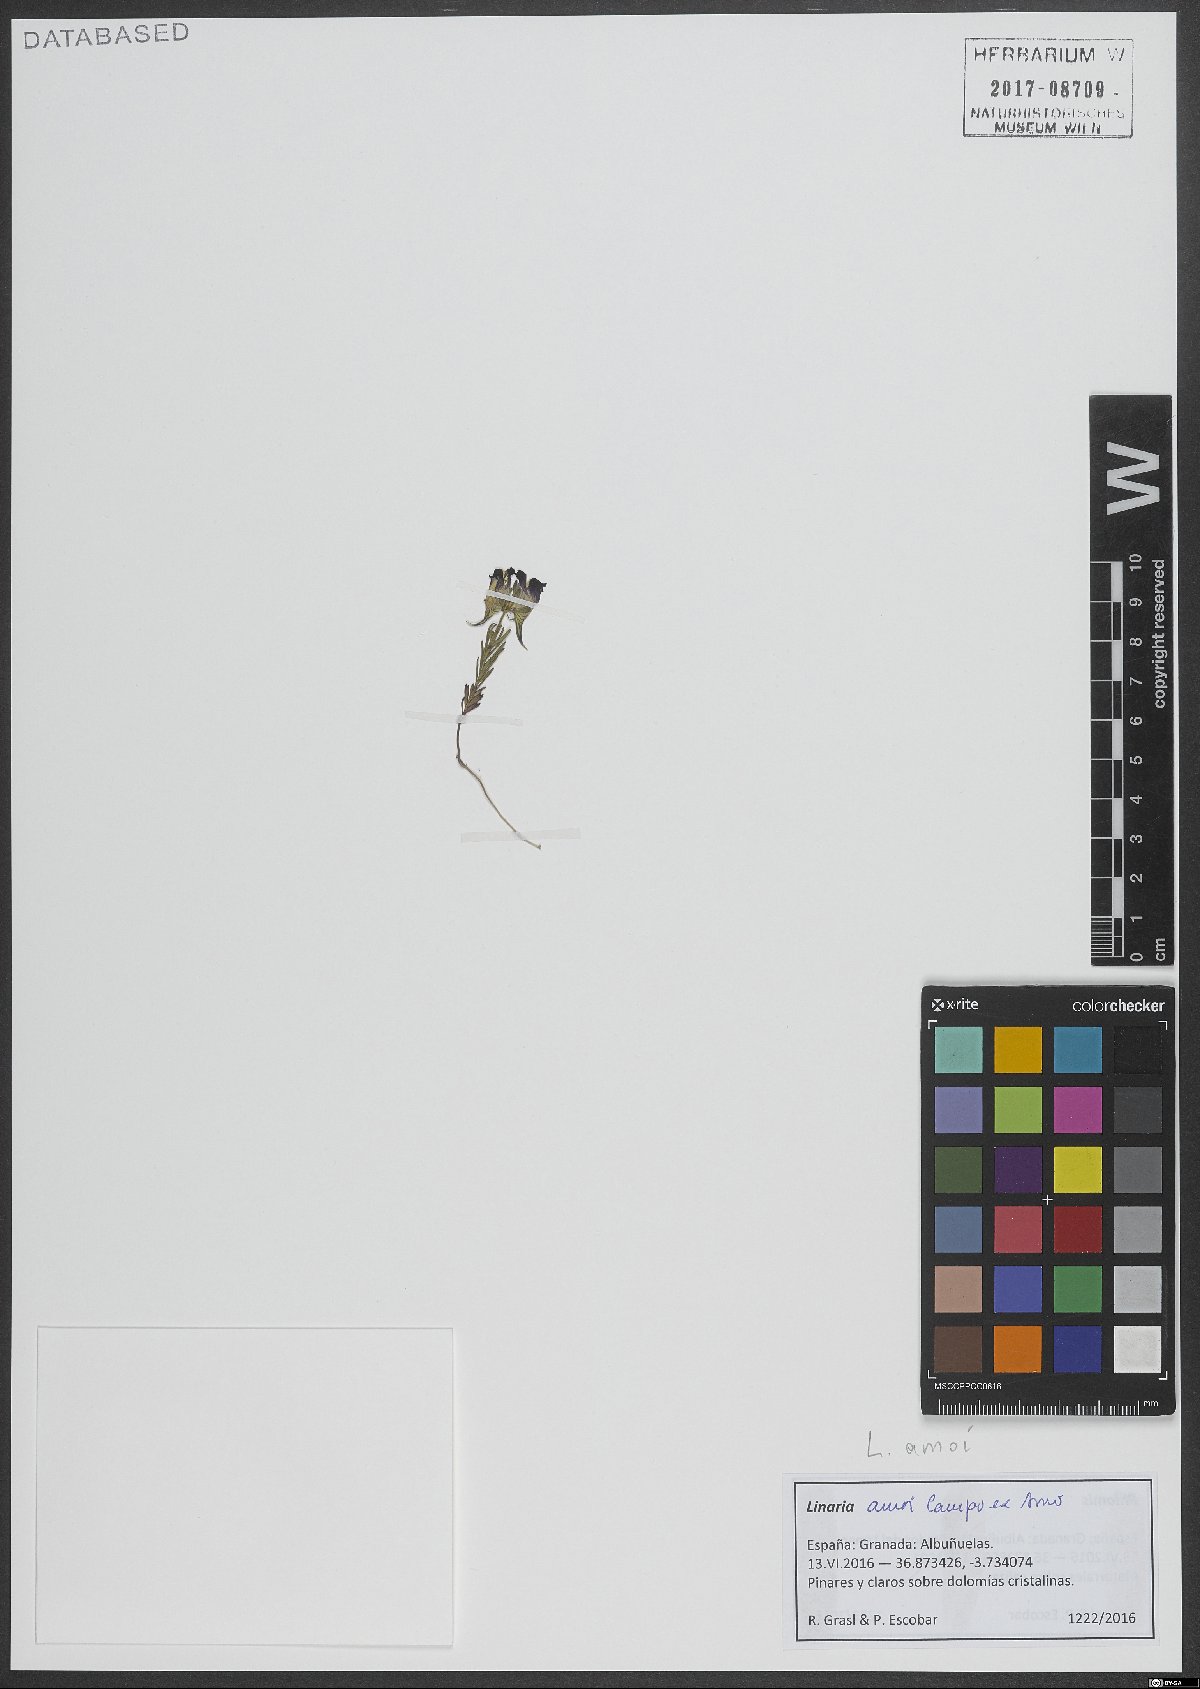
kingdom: Plantae
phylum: Tracheophyta
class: Magnoliopsida
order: Lamiales
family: Plantaginaceae
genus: Linaria
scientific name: Linaria amoi
